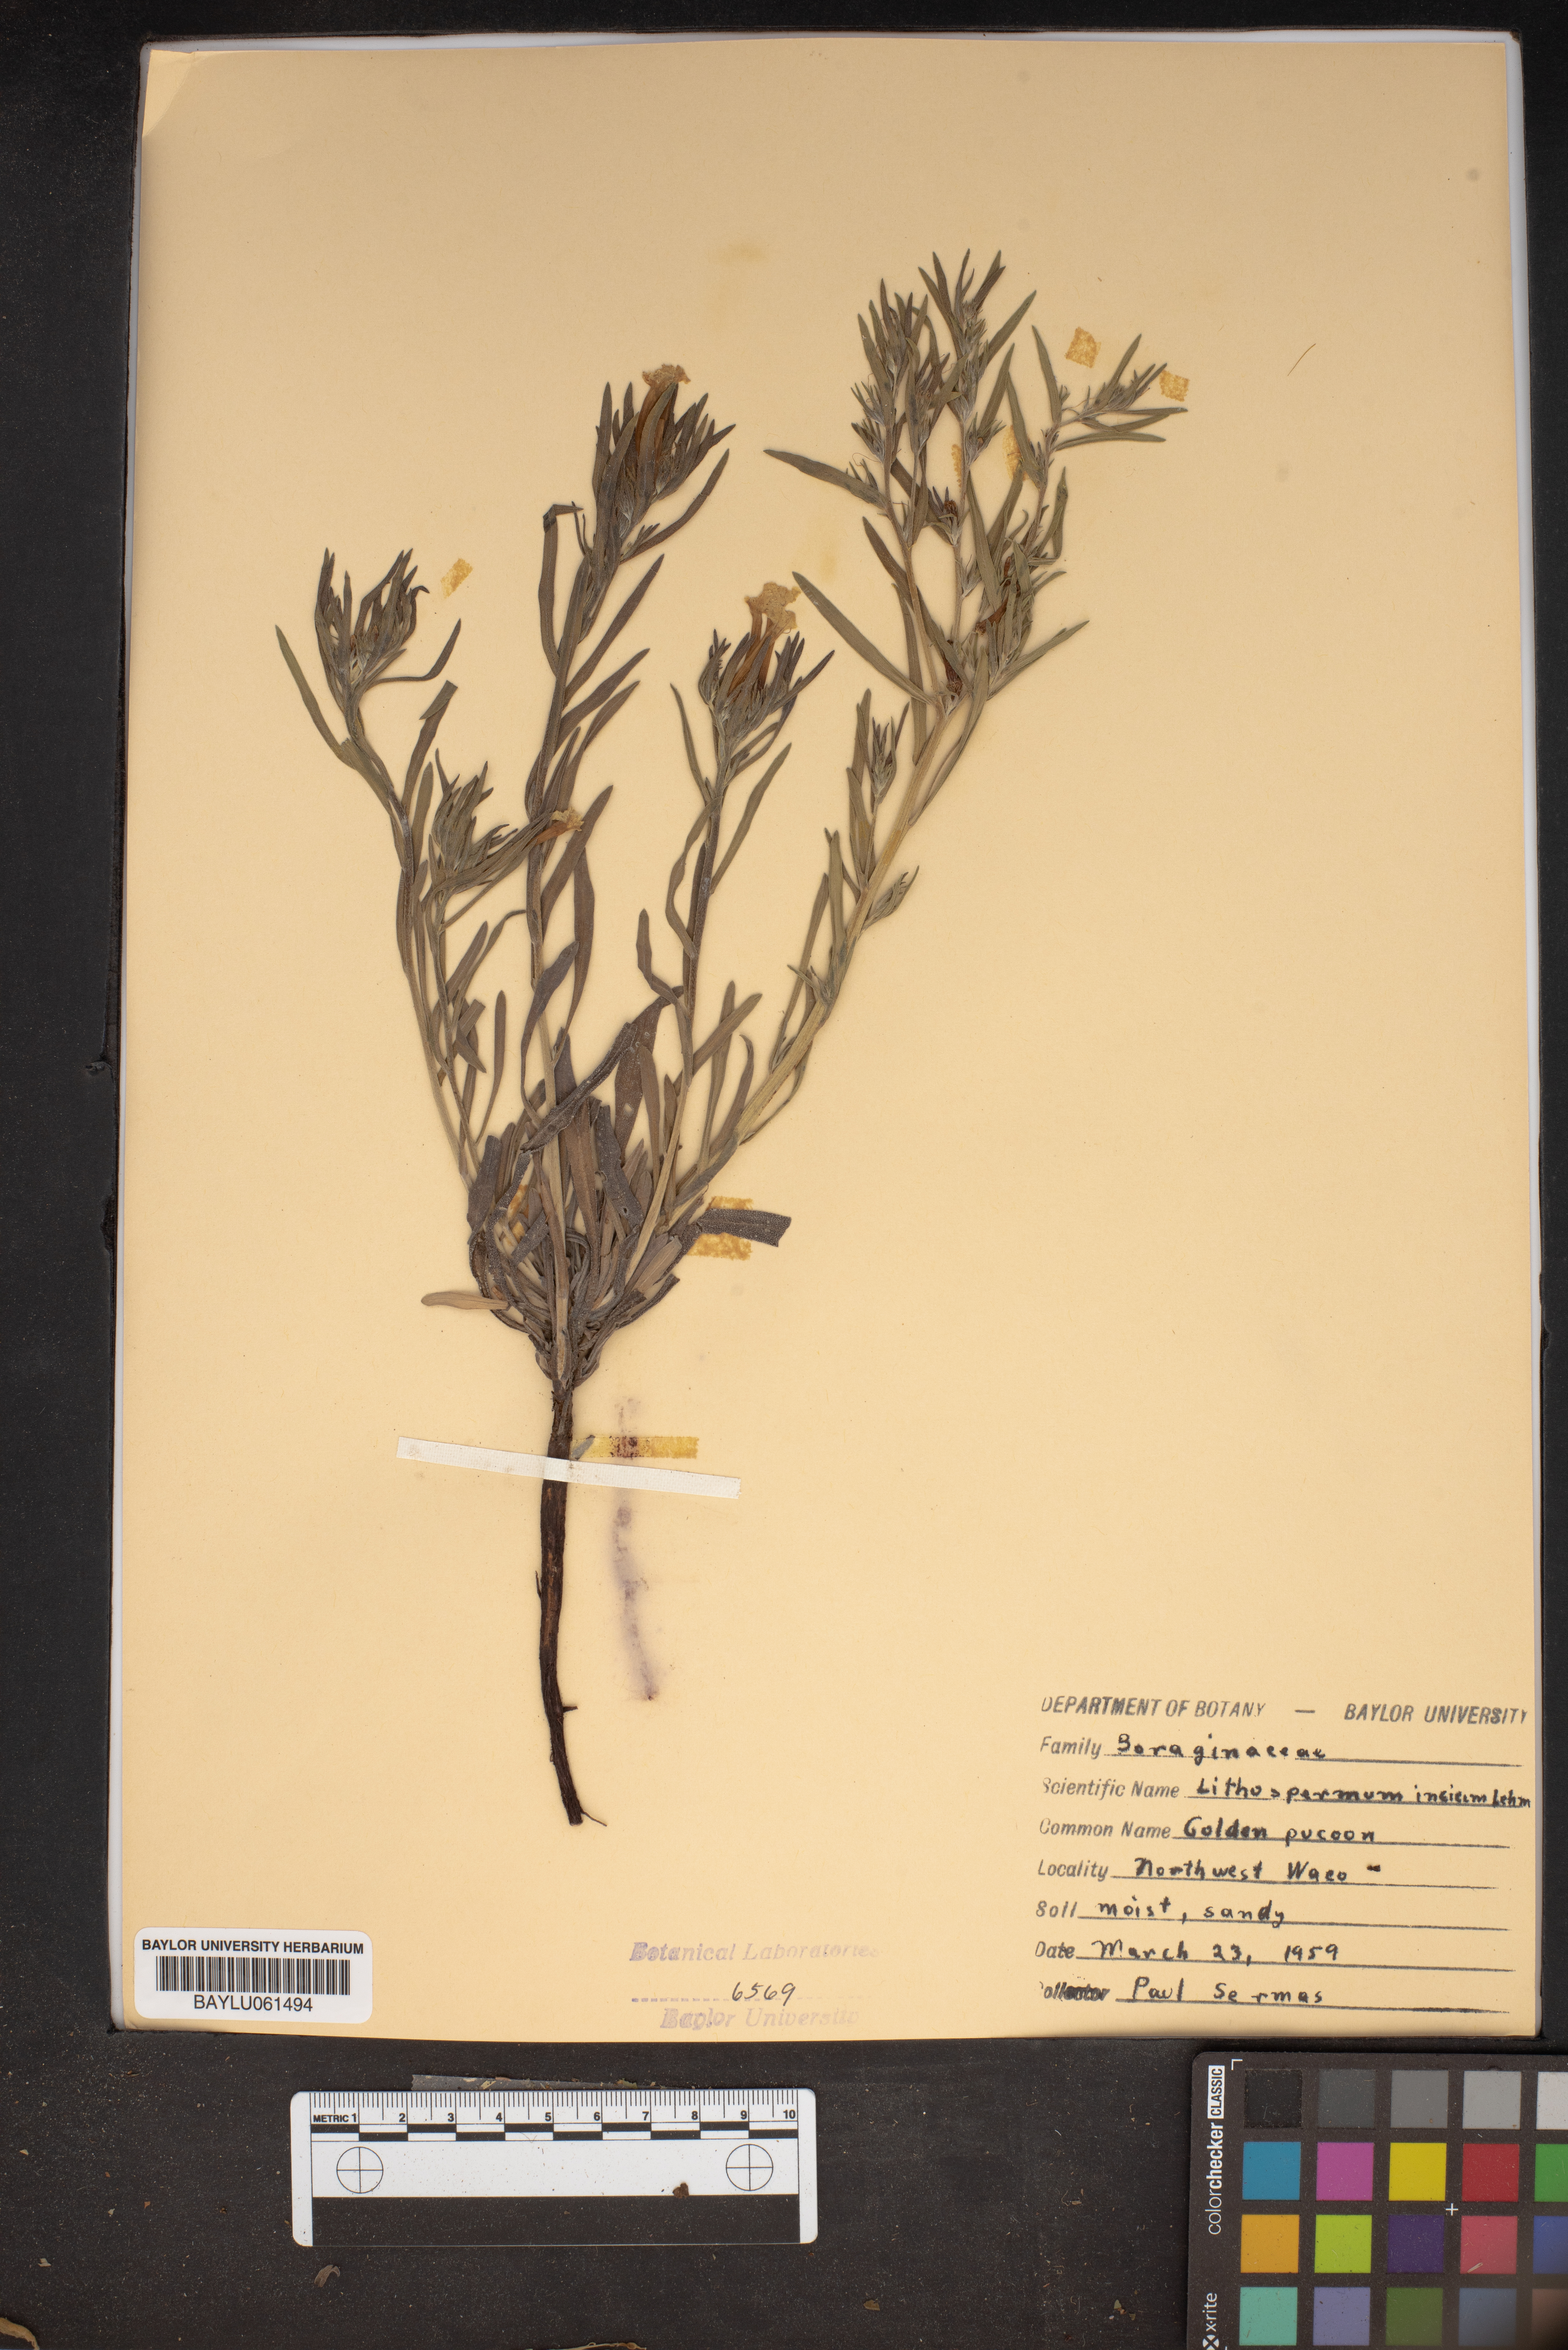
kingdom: Plantae
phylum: Tracheophyta
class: Magnoliopsida
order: Boraginales
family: Boraginaceae
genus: Lithospermum
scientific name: Lithospermum incisum
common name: Fringed gromwell
